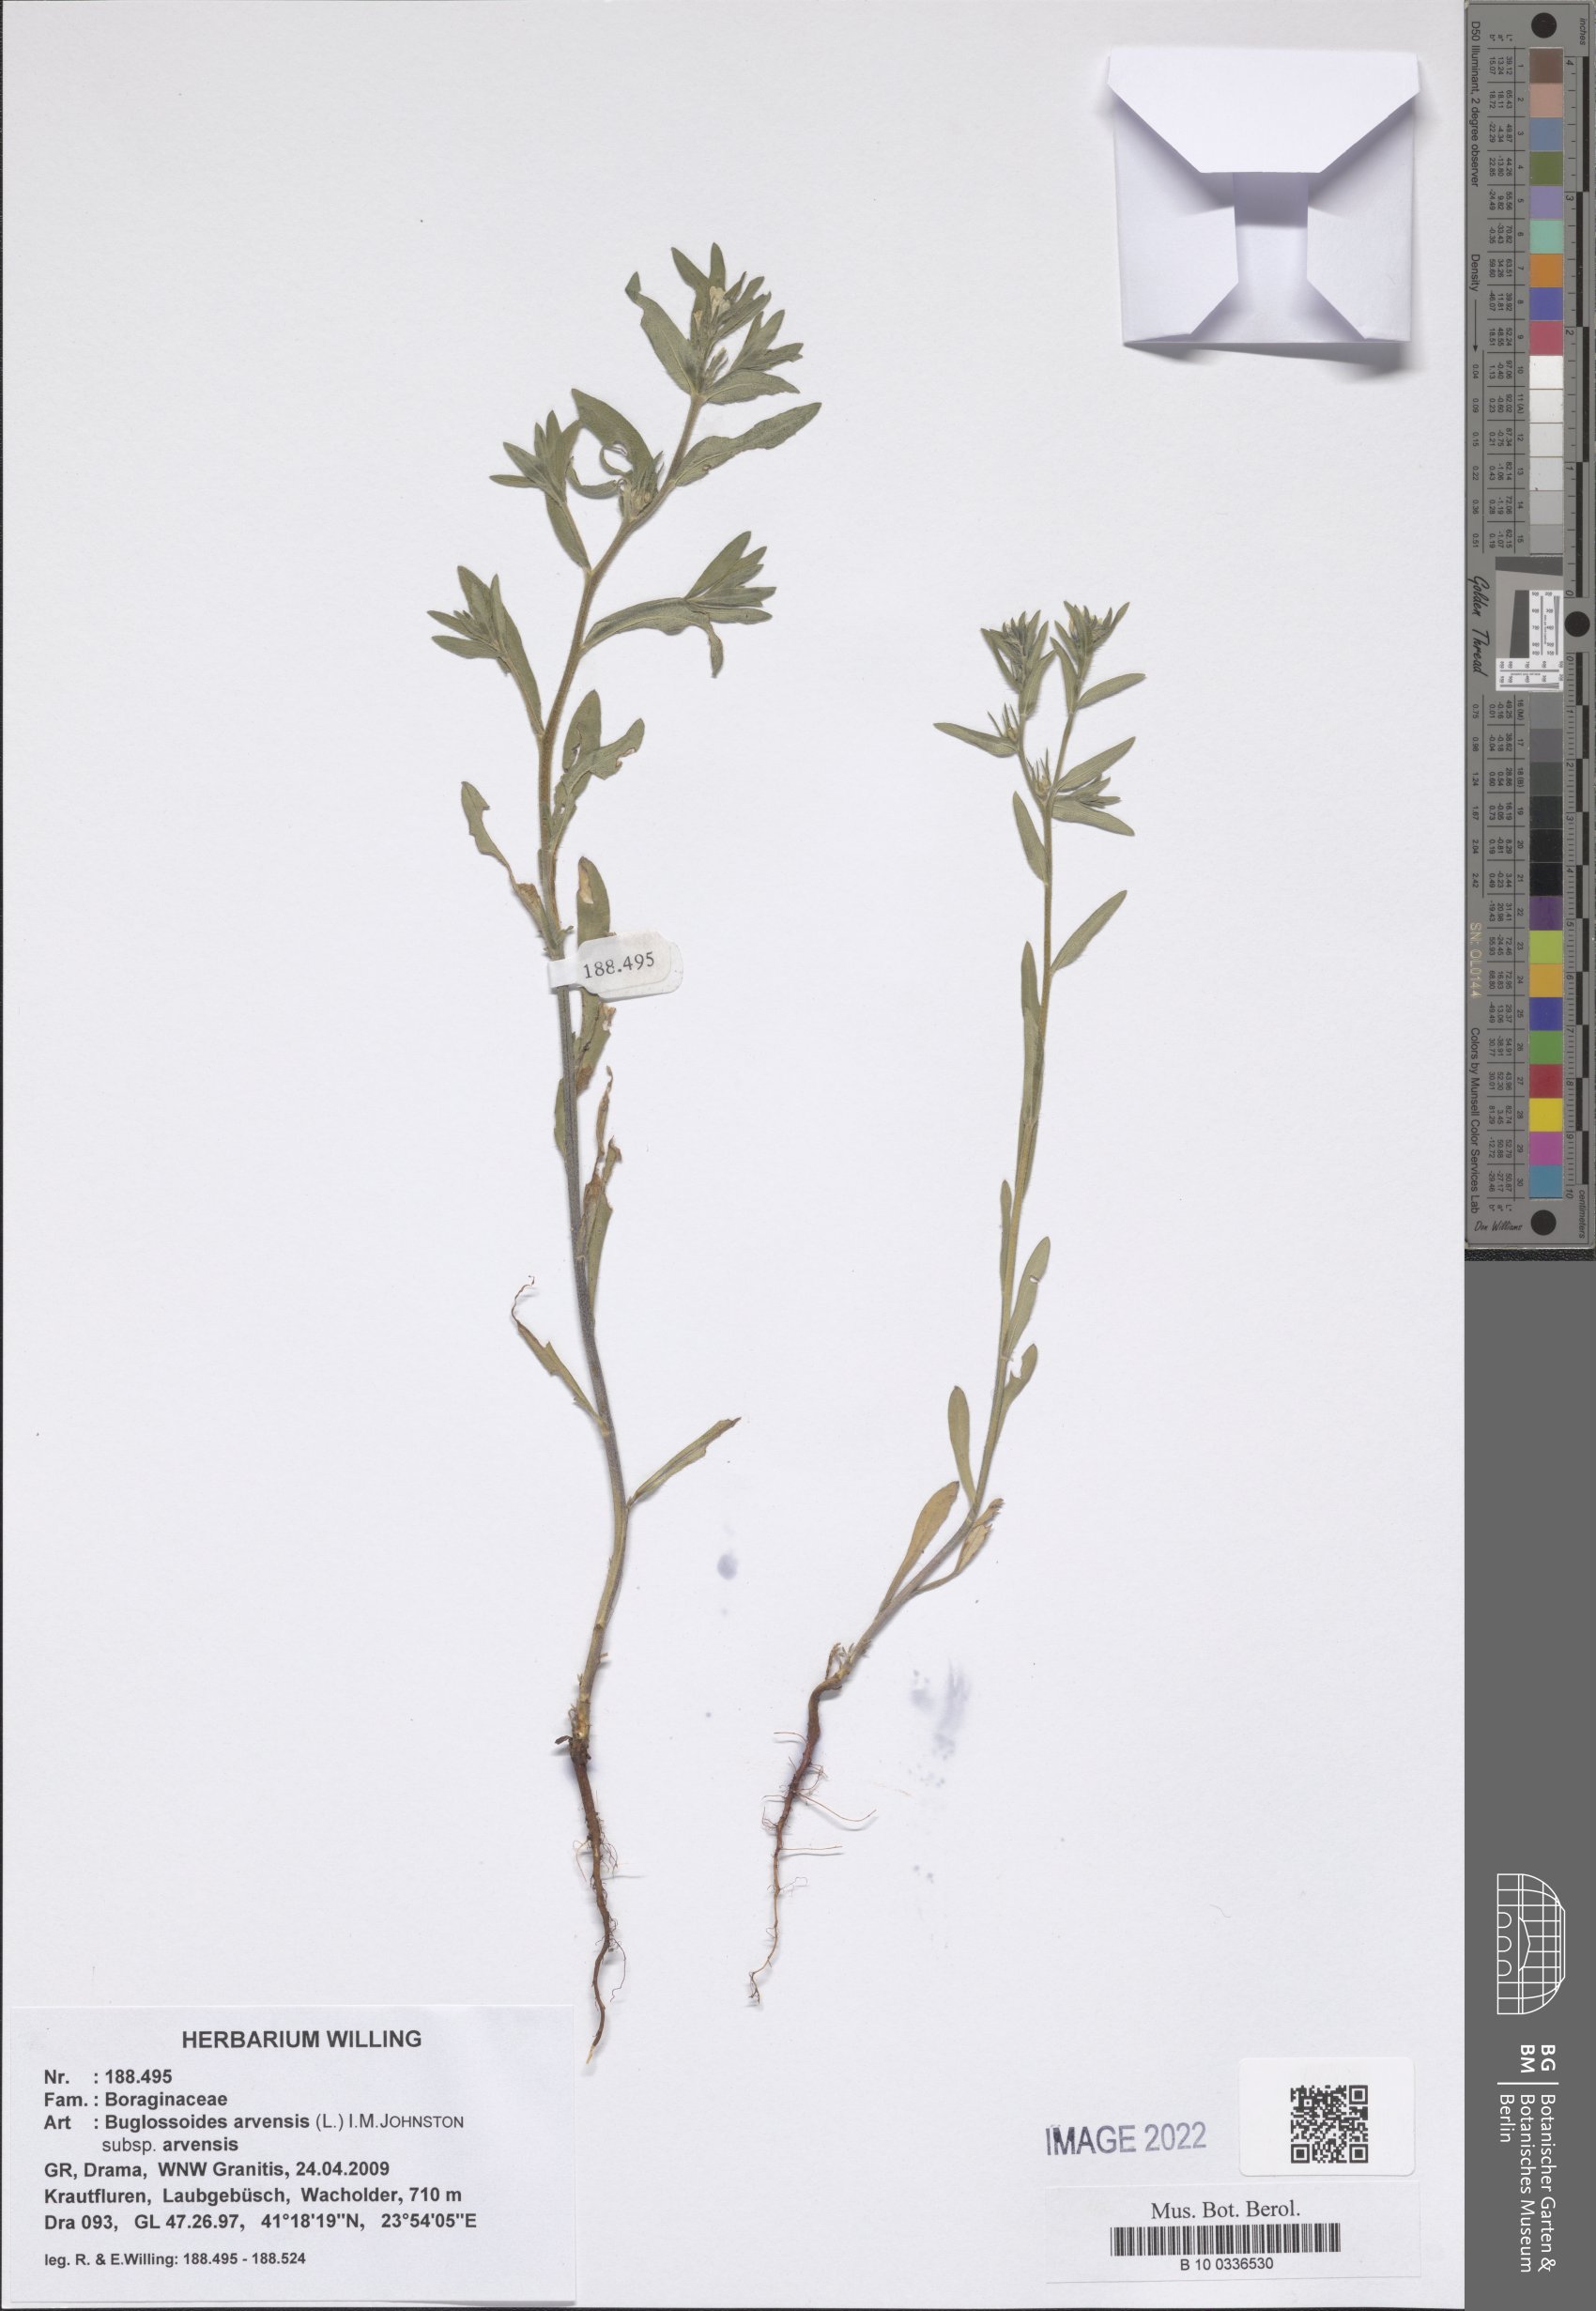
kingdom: Plantae
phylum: Tracheophyta
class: Magnoliopsida
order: Boraginales
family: Boraginaceae
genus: Buglossoides
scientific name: Buglossoides arvensis
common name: Corn gromwell
